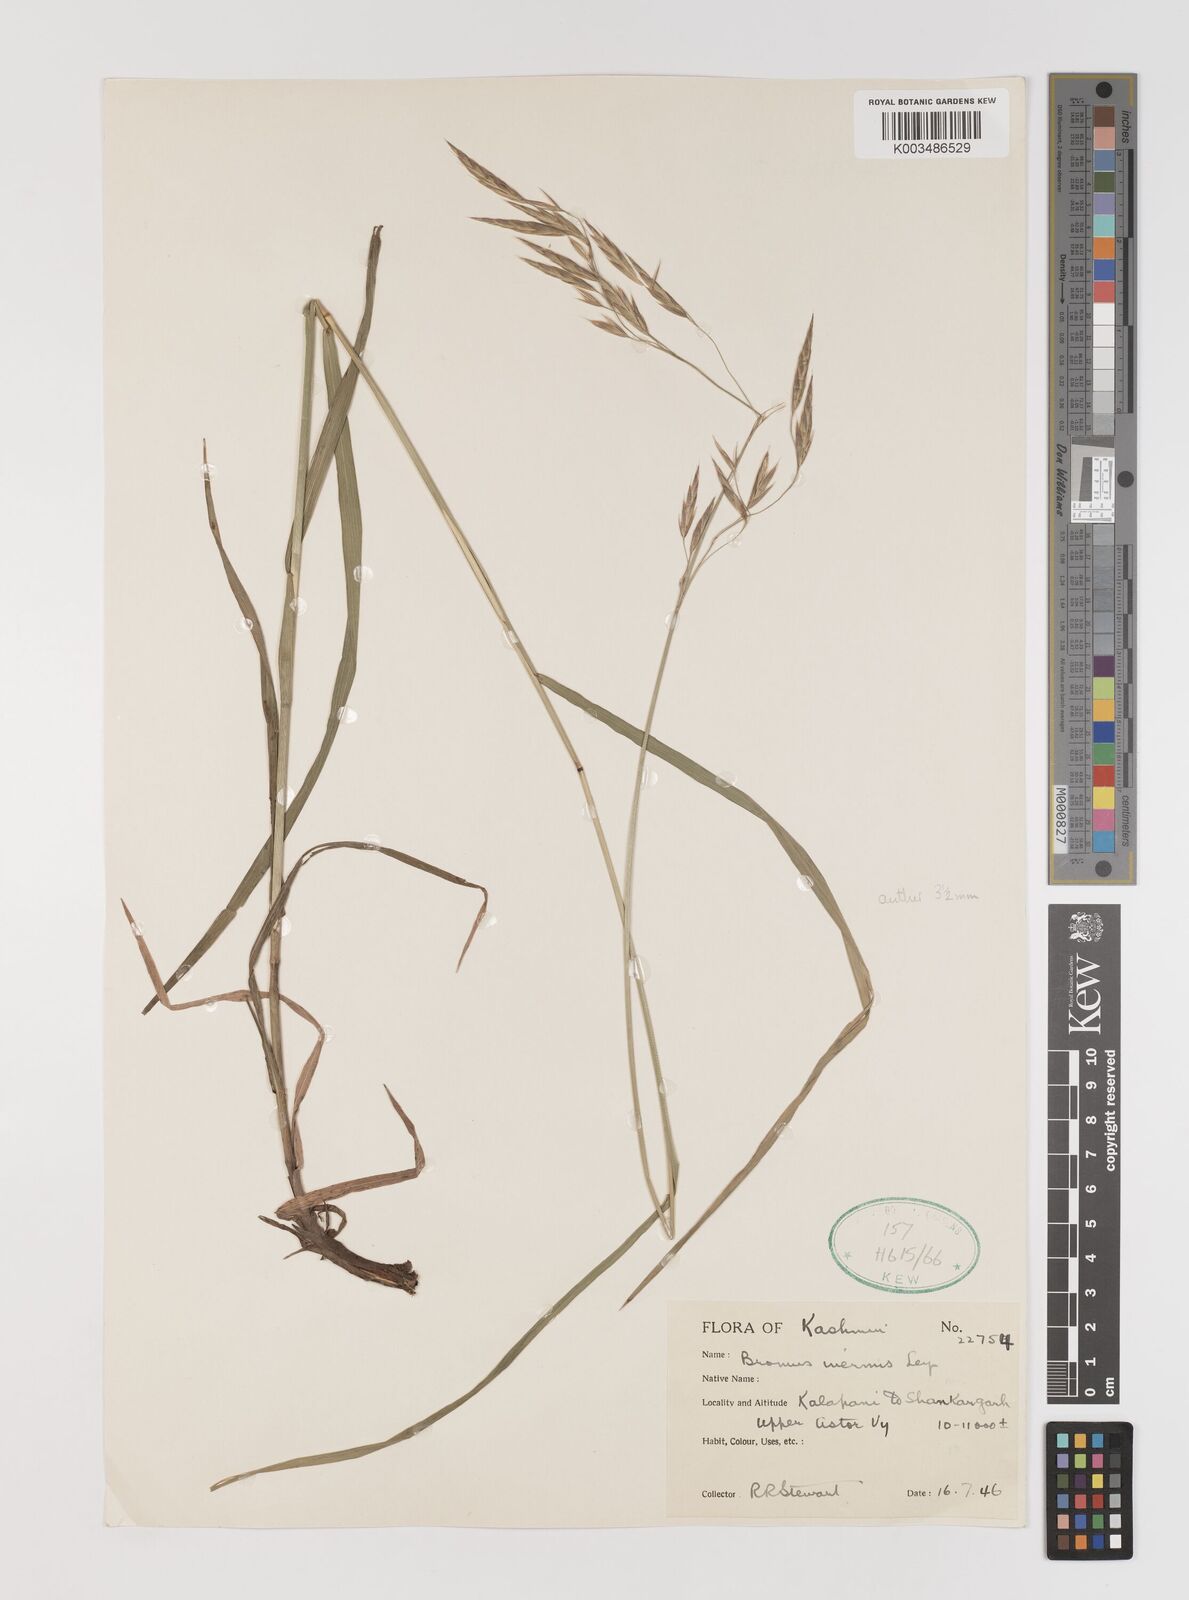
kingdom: Plantae
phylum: Tracheophyta
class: Liliopsida
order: Poales
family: Poaceae
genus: Bromus
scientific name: Bromus inermis
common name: Smooth brome
